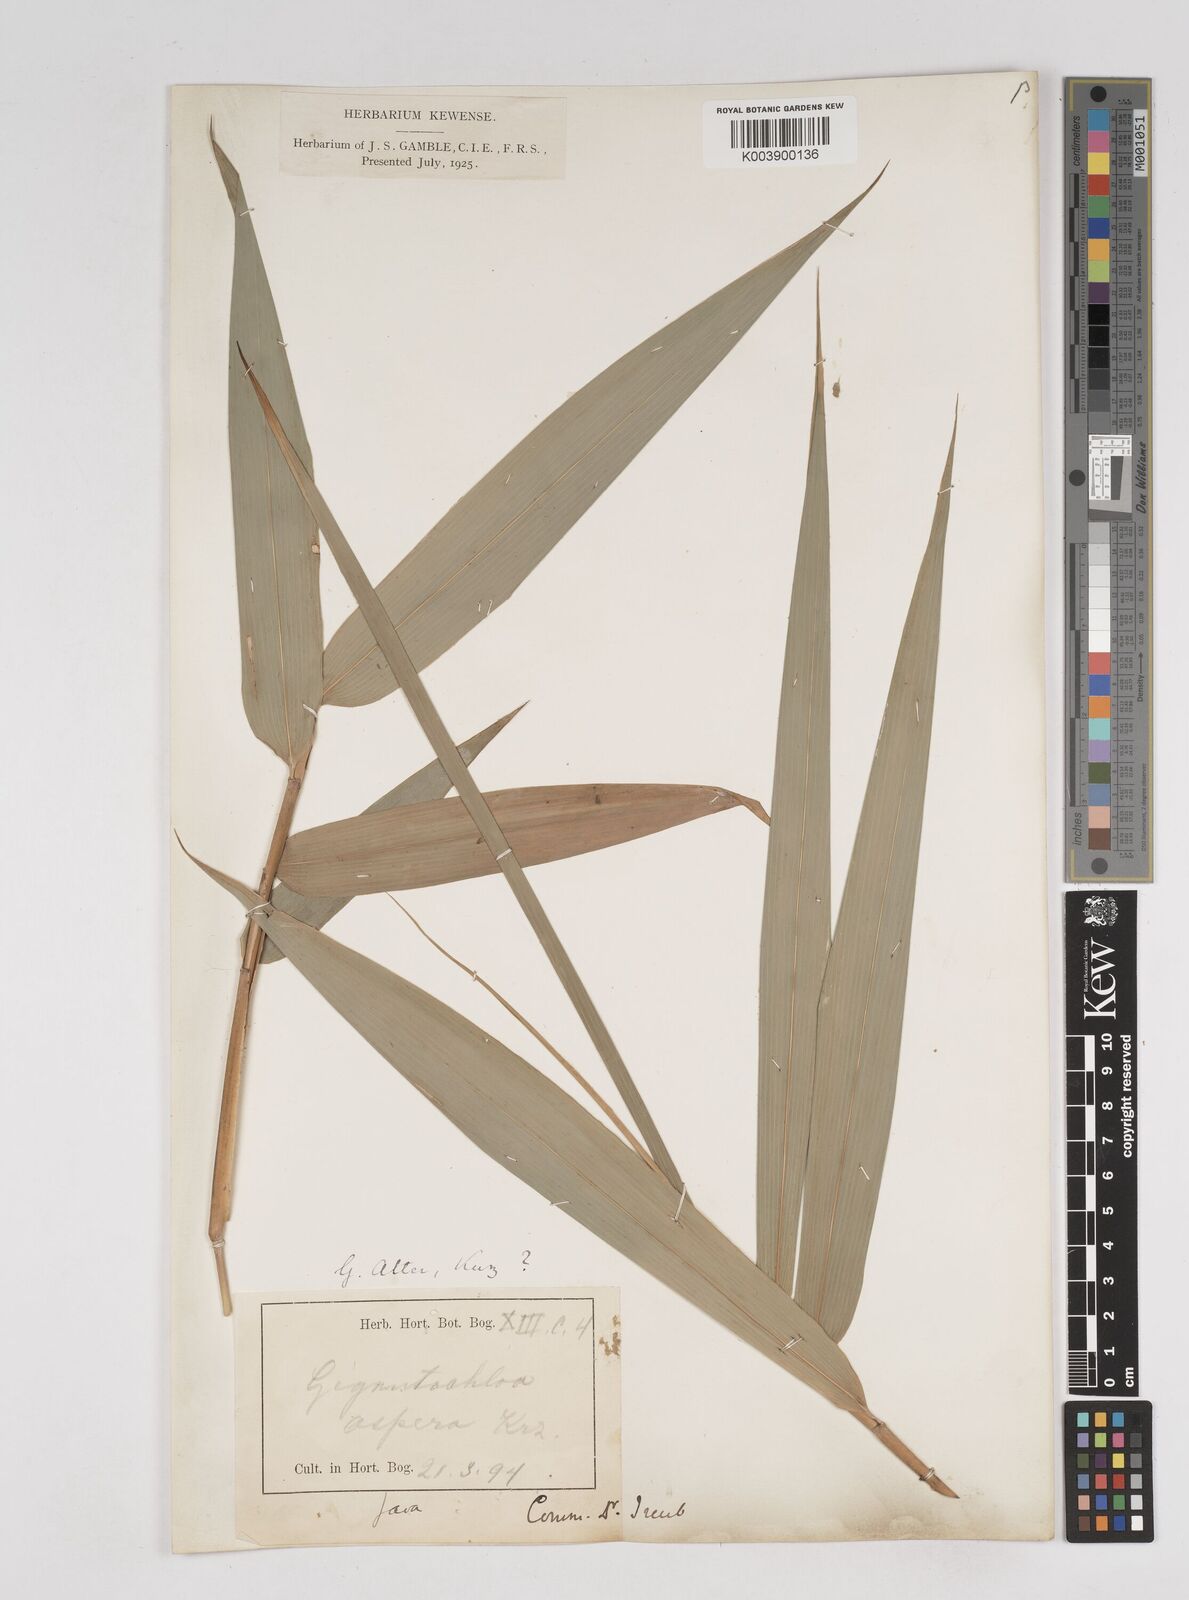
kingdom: Plantae
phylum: Tracheophyta
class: Liliopsida
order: Poales
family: Poaceae
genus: Gigantochloa
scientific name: Gigantochloa atter
